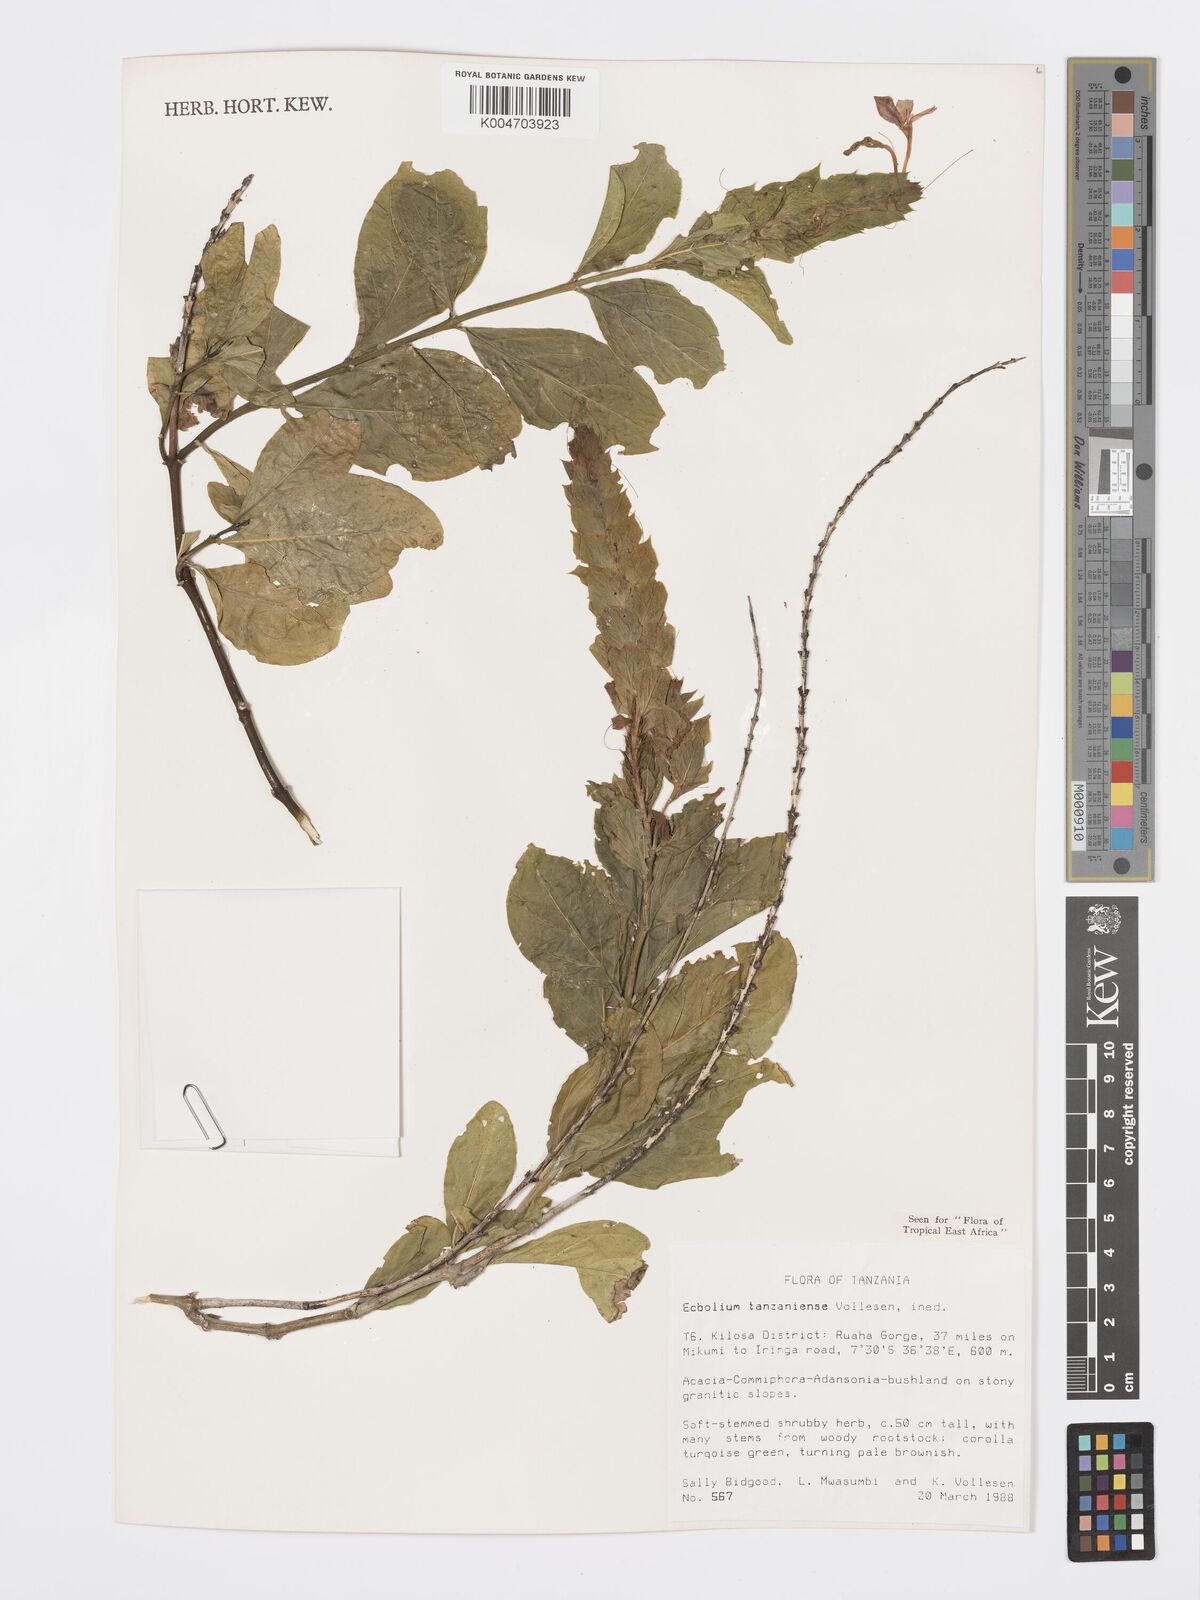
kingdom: Plantae
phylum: Tracheophyta
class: Magnoliopsida
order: Lamiales
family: Acanthaceae
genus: Ecbolium
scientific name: Ecbolium tanzaniense
